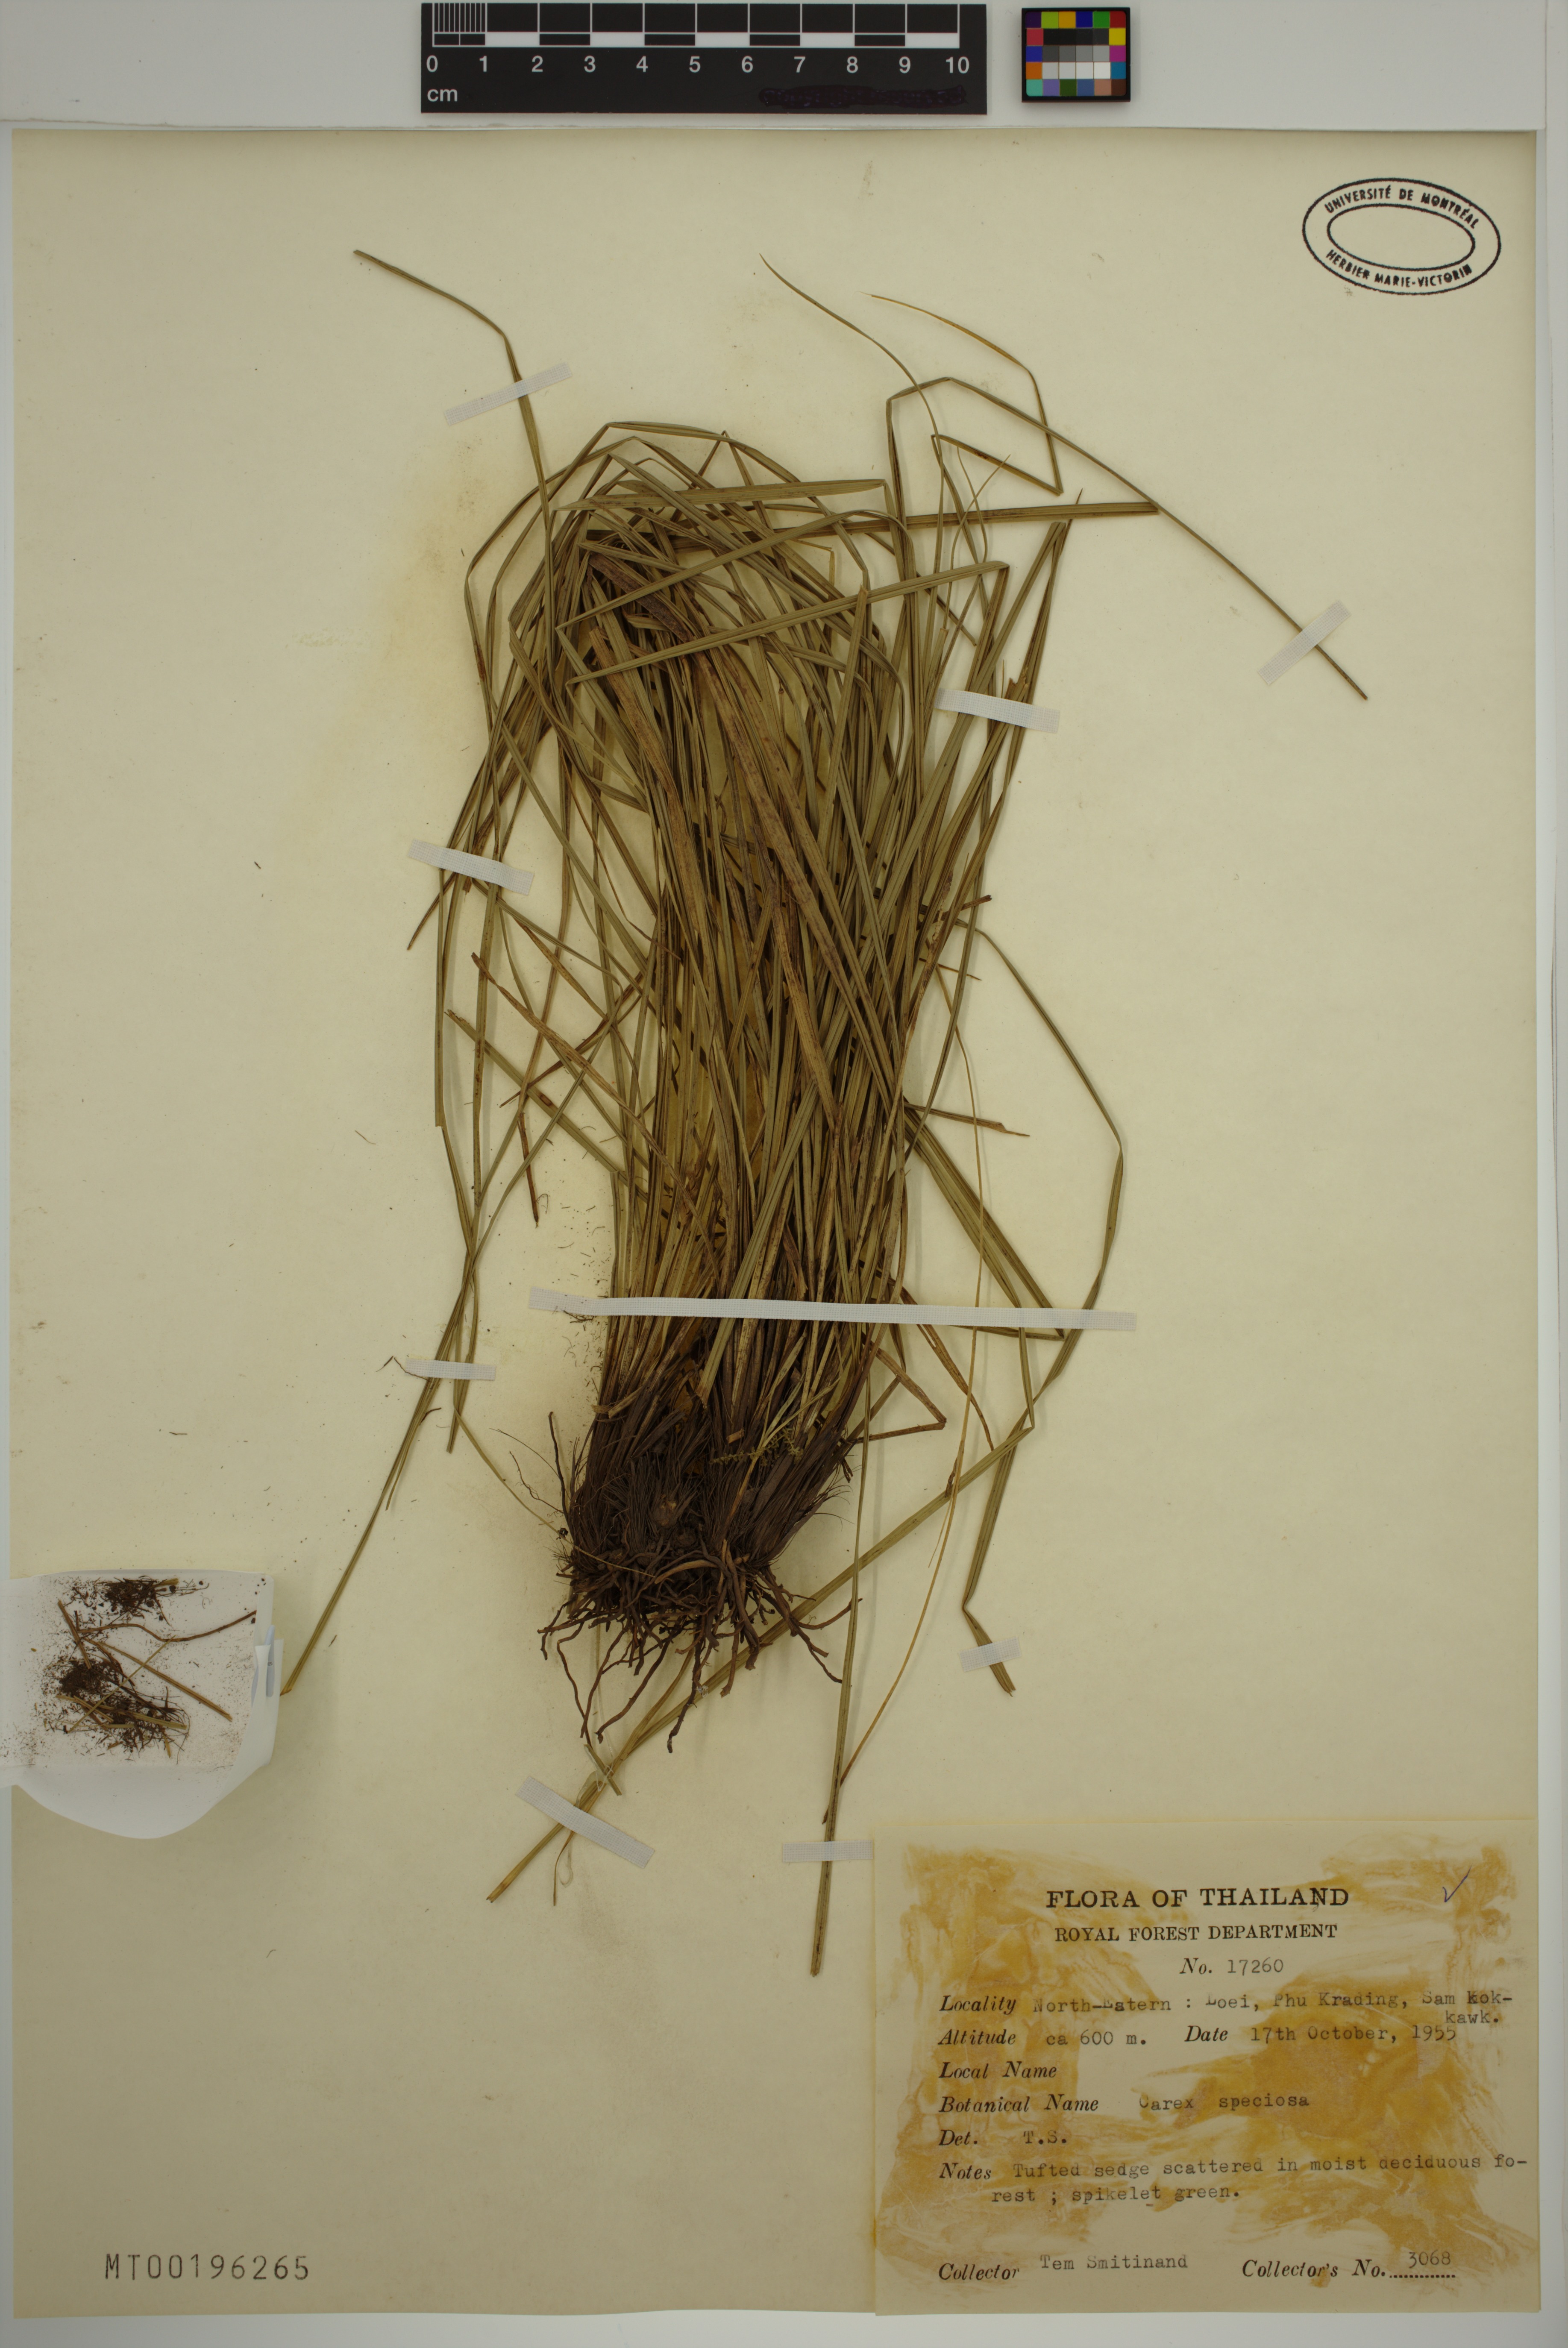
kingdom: Plantae
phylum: Tracheophyta
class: Liliopsida
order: Poales
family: Cyperaceae
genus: Carex
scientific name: Carex speciosa
